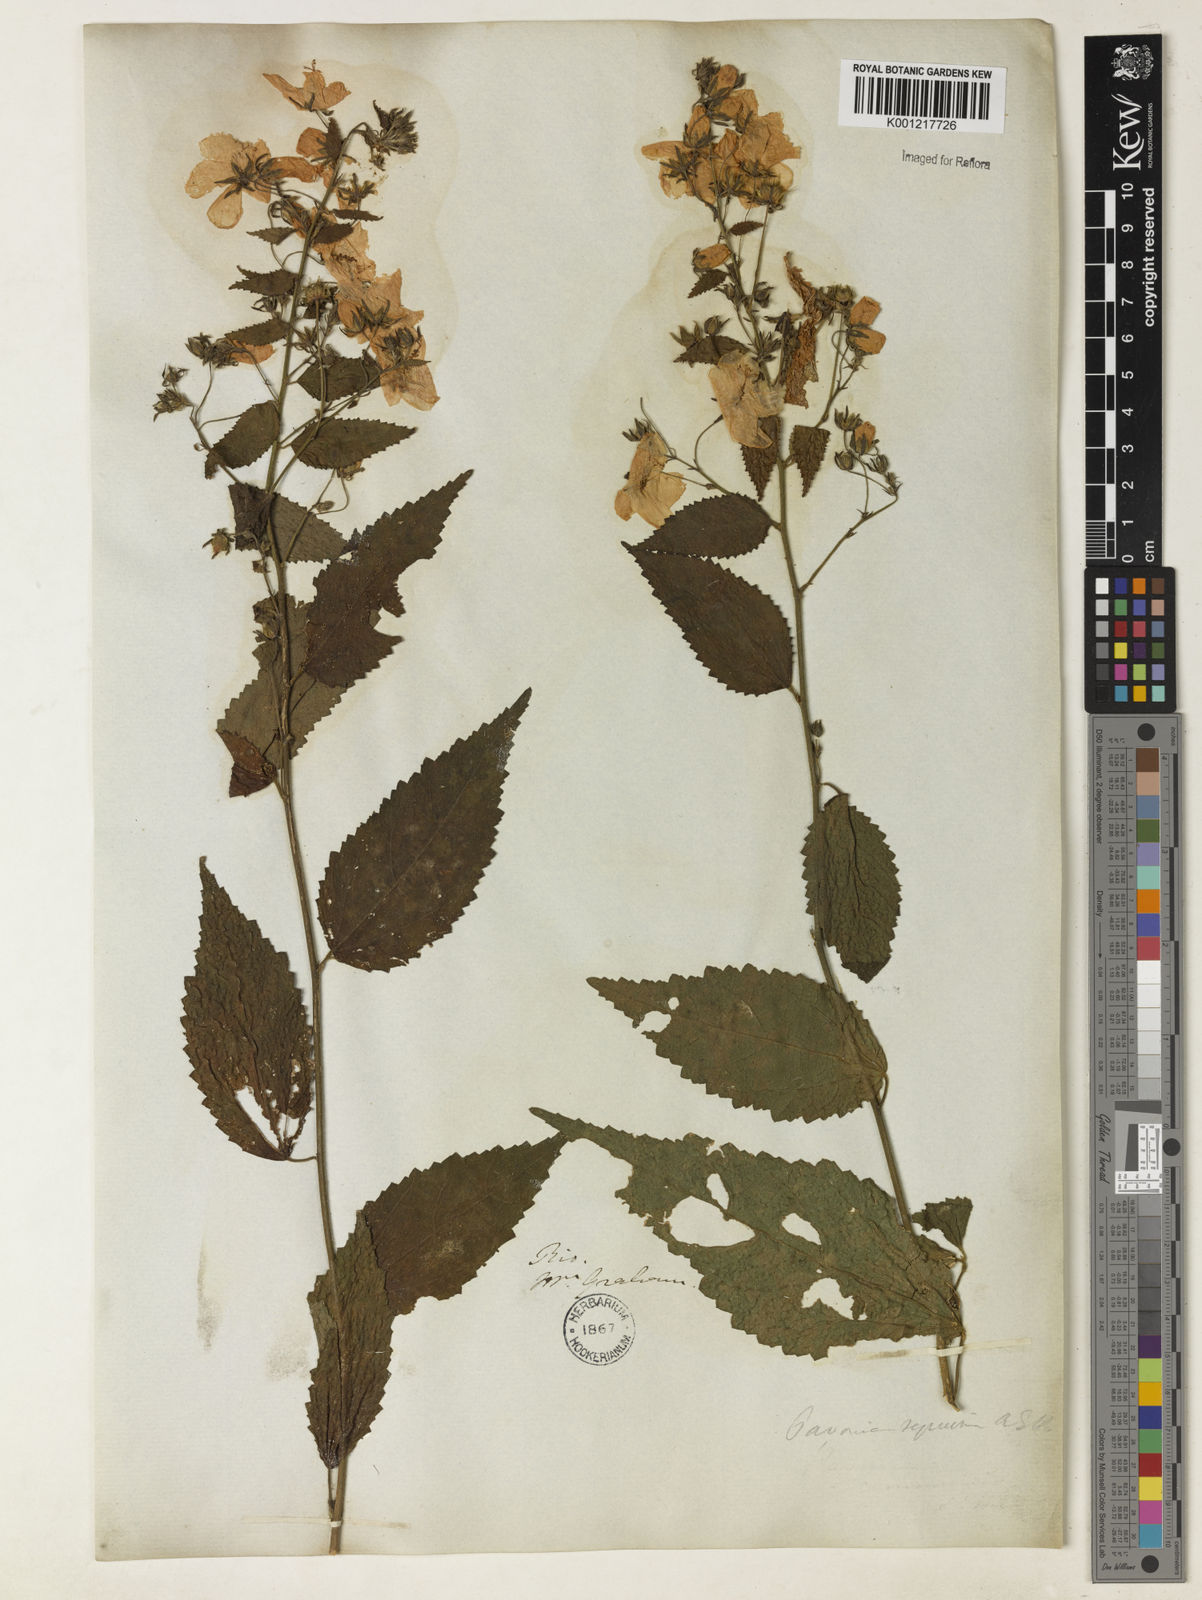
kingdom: Plantae
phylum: Tracheophyta
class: Magnoliopsida
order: Malvales
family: Malvaceae
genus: Pavonia
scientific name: Pavonia sepium
